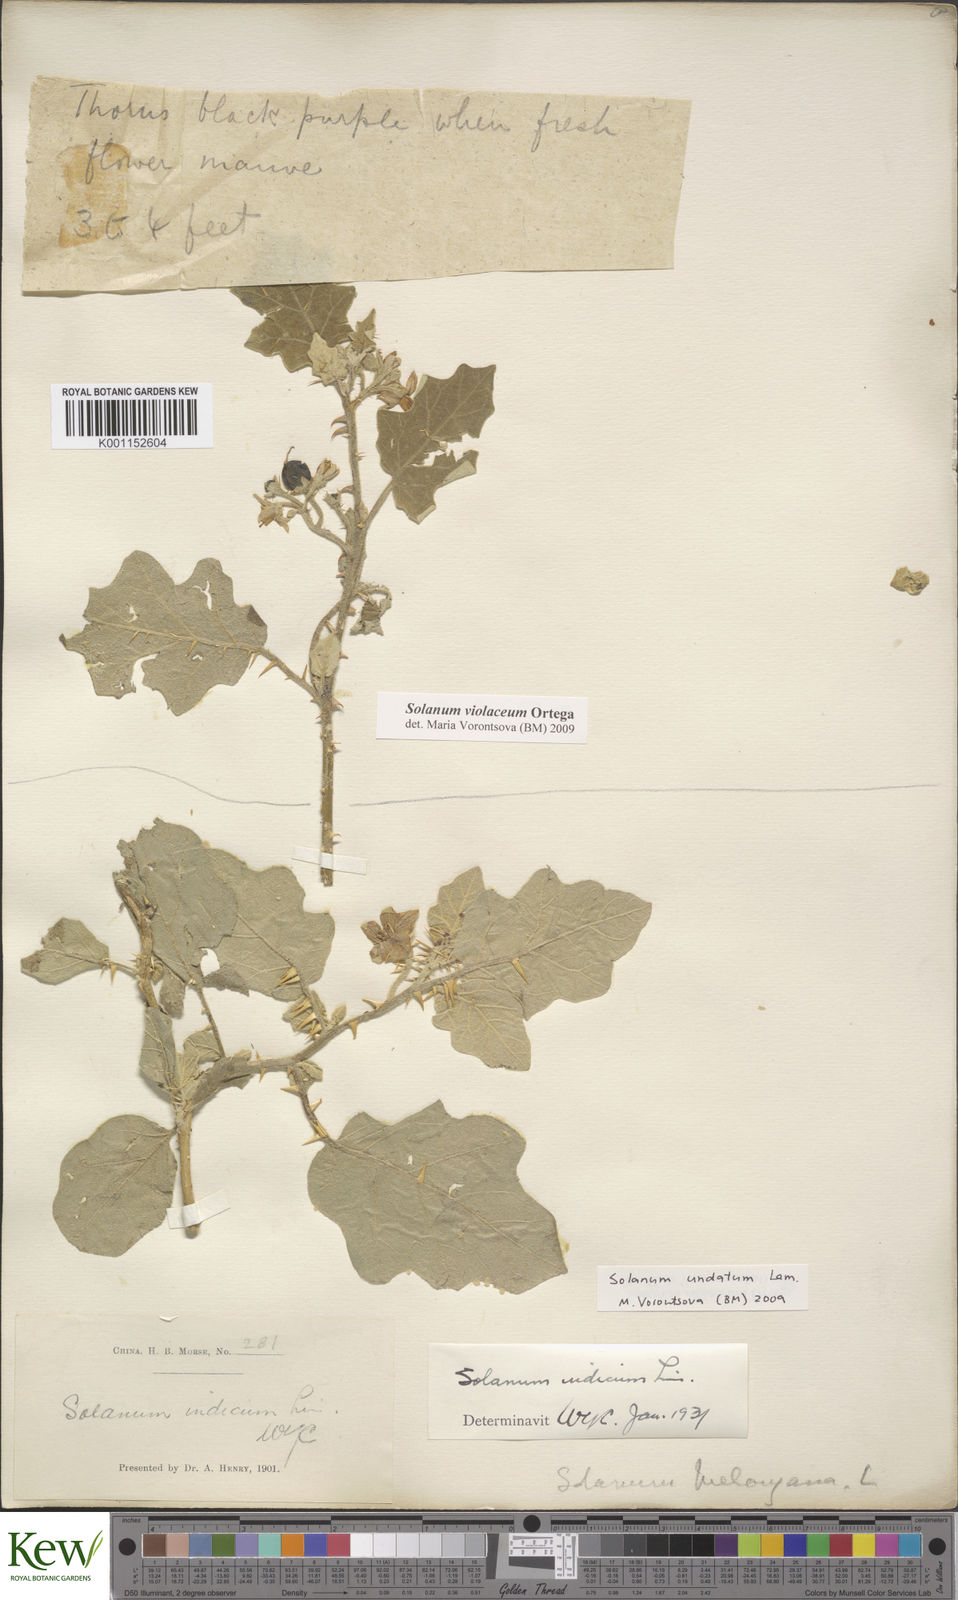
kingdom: Plantae
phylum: Tracheophyta
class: Magnoliopsida
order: Solanales
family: Solanaceae
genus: Solanum
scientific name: Solanum insanum
